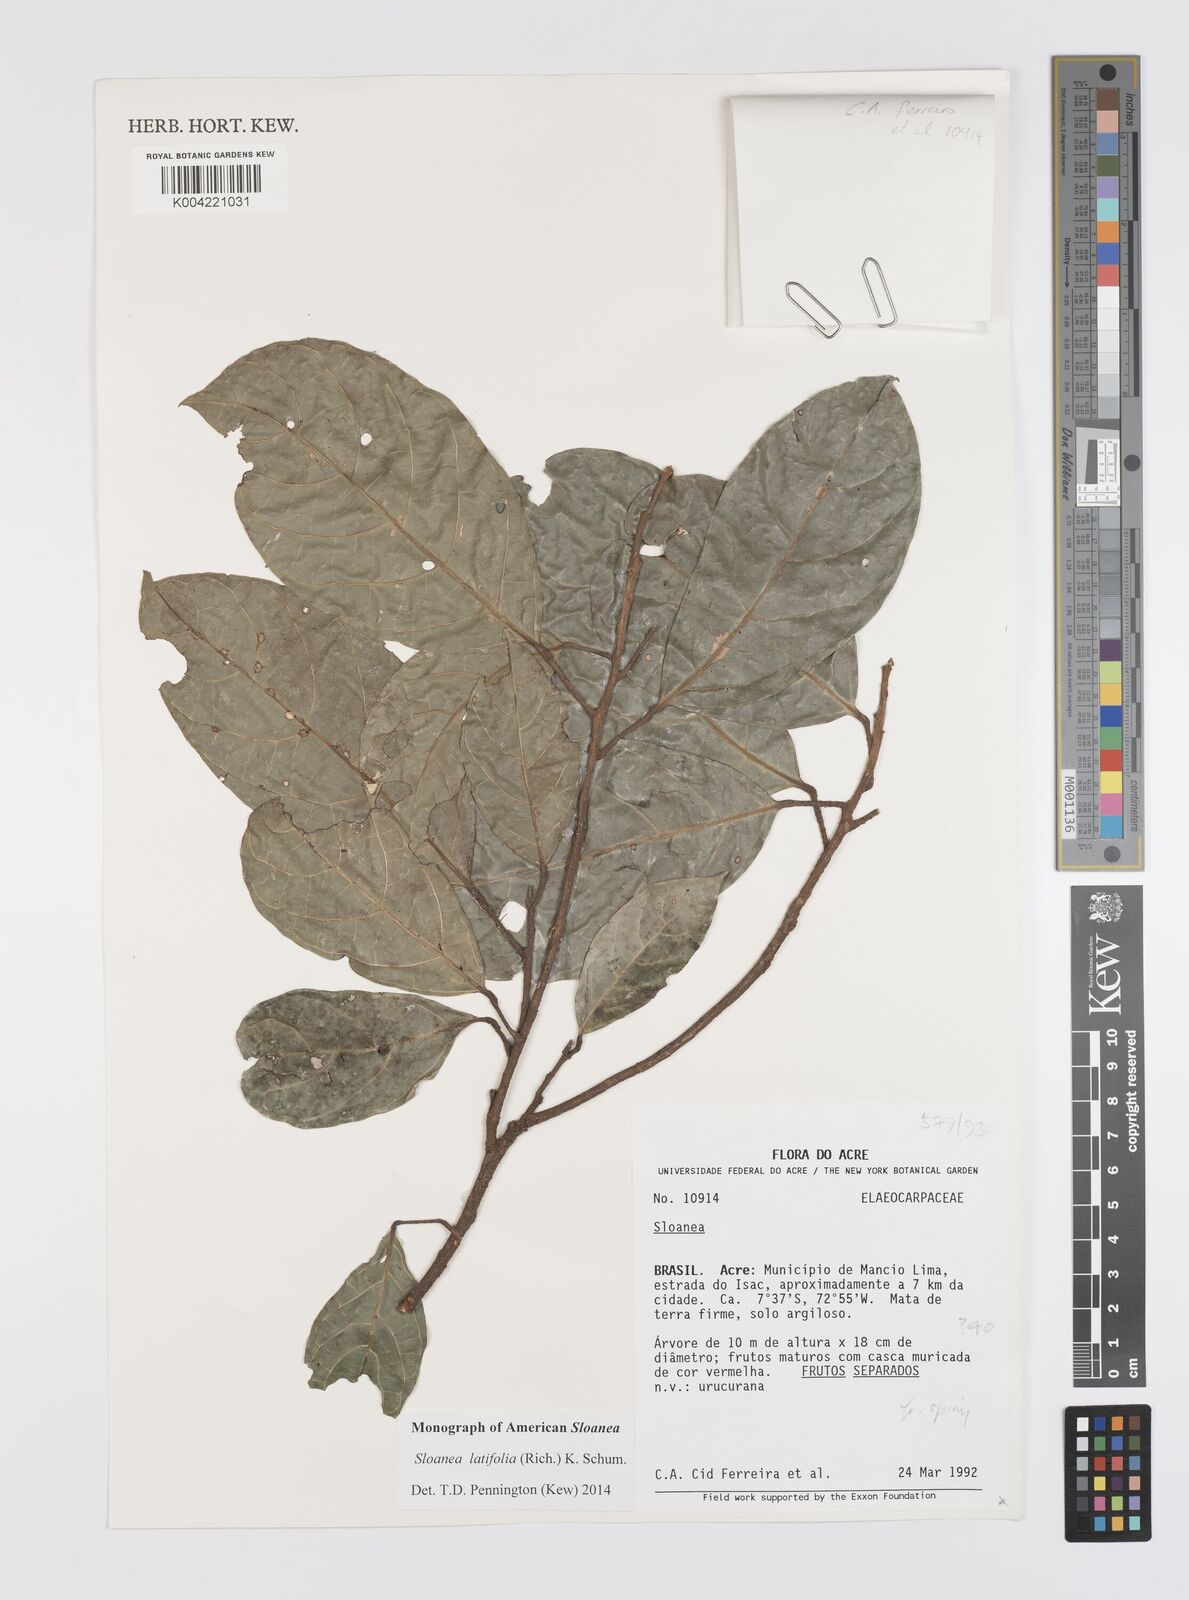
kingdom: Plantae
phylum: Tracheophyta
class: Magnoliopsida
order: Oxalidales
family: Elaeocarpaceae
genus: Sloanea
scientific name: Sloanea latifolia
